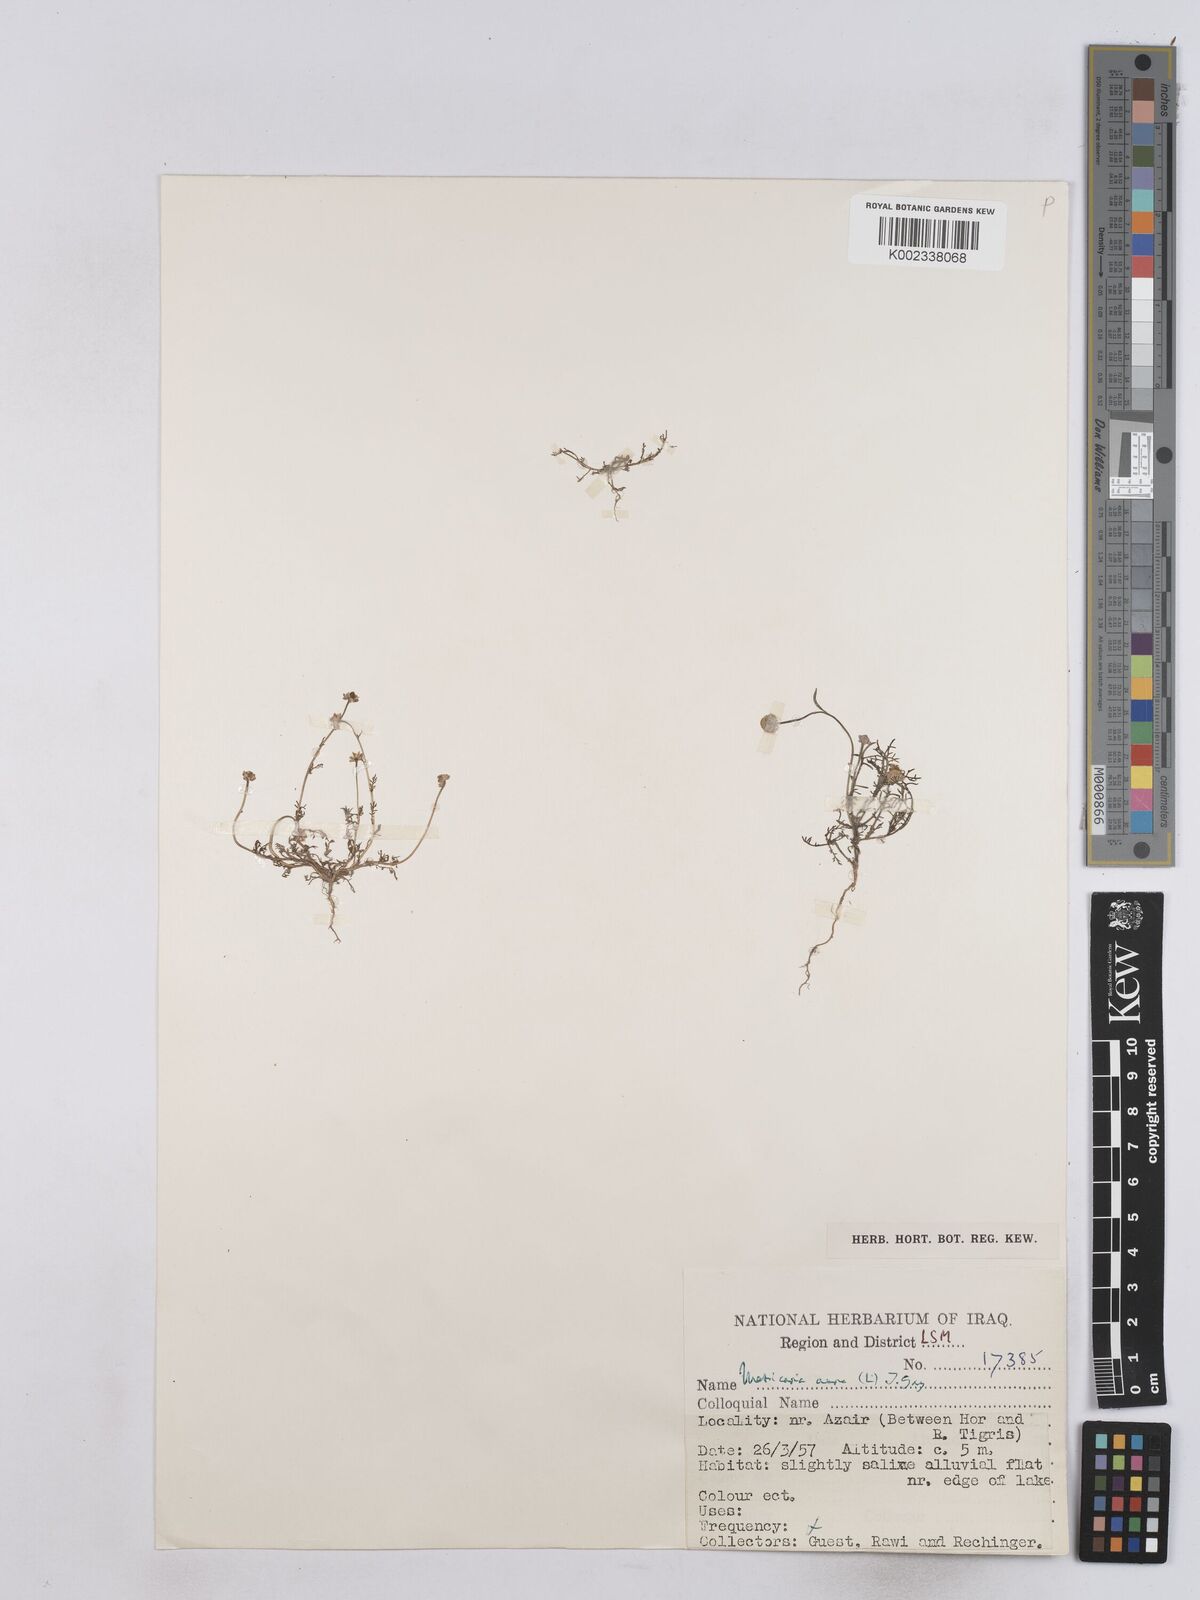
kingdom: Plantae
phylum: Tracheophyta
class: Magnoliopsida
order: Asterales
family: Asteraceae
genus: Matricaria
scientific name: Matricaria aurea
